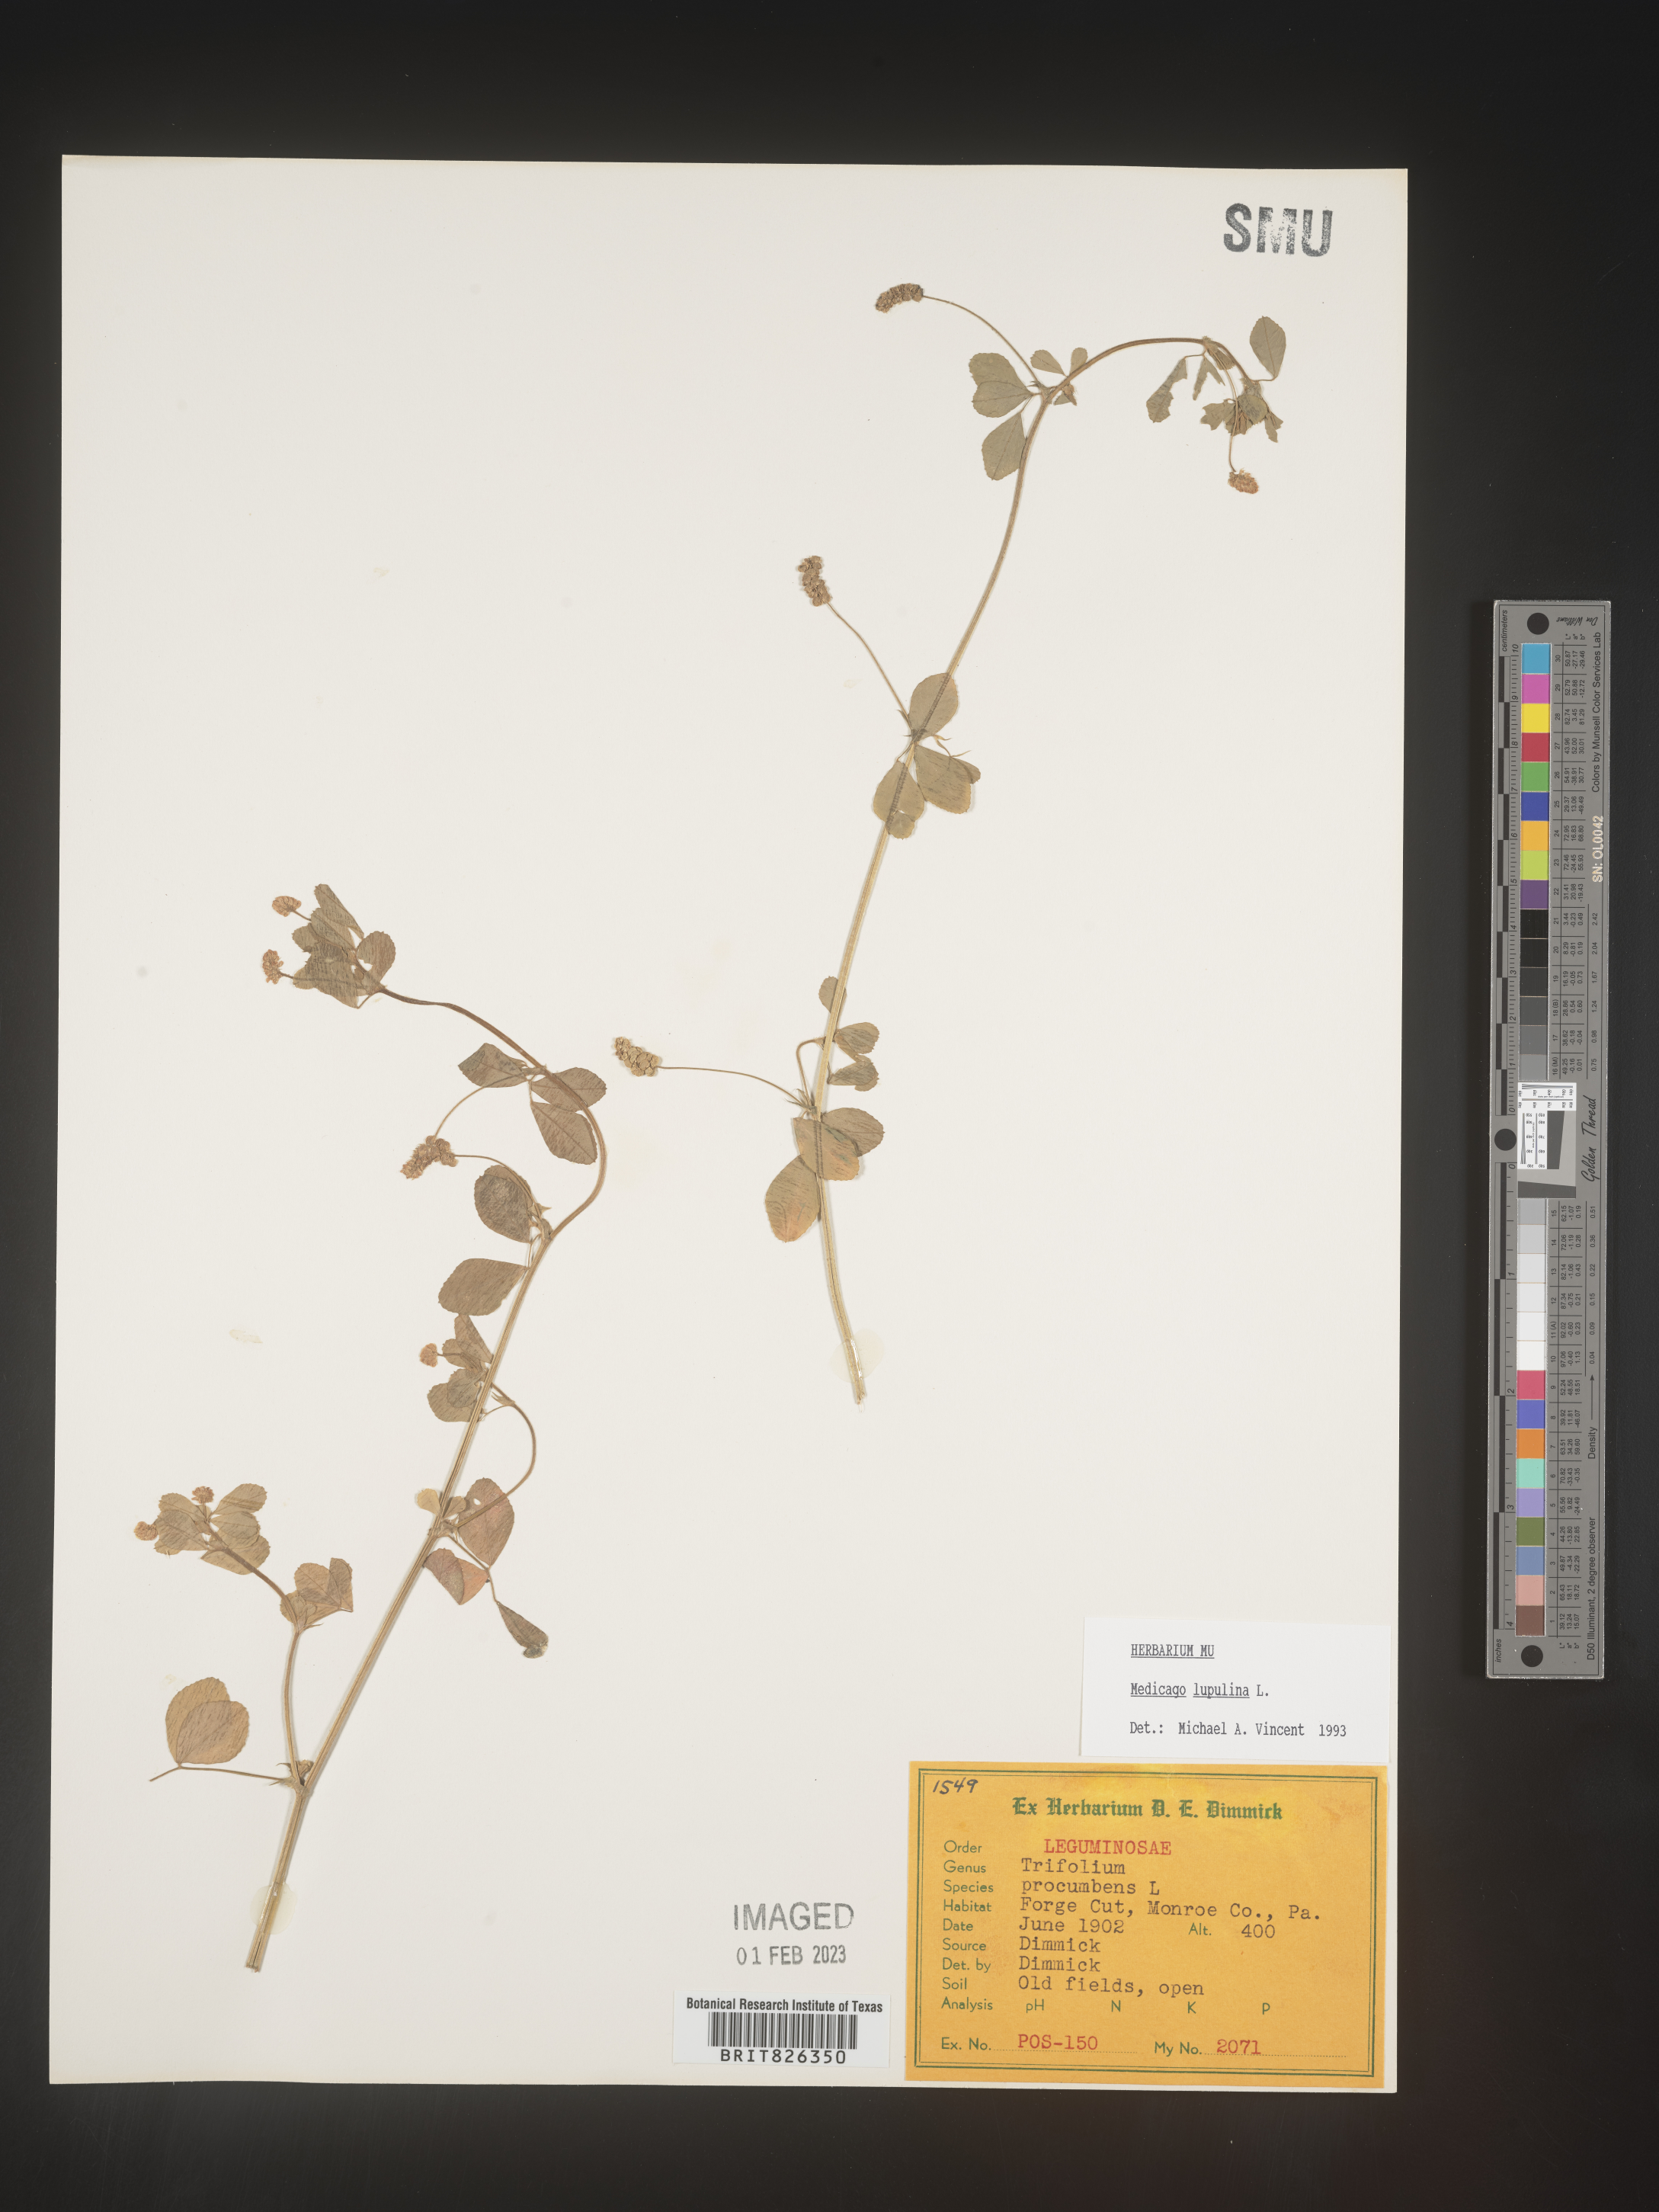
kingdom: Plantae
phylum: Tracheophyta
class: Magnoliopsida
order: Fabales
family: Fabaceae
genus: Medicago
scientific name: Medicago lupulina
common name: Black medick
